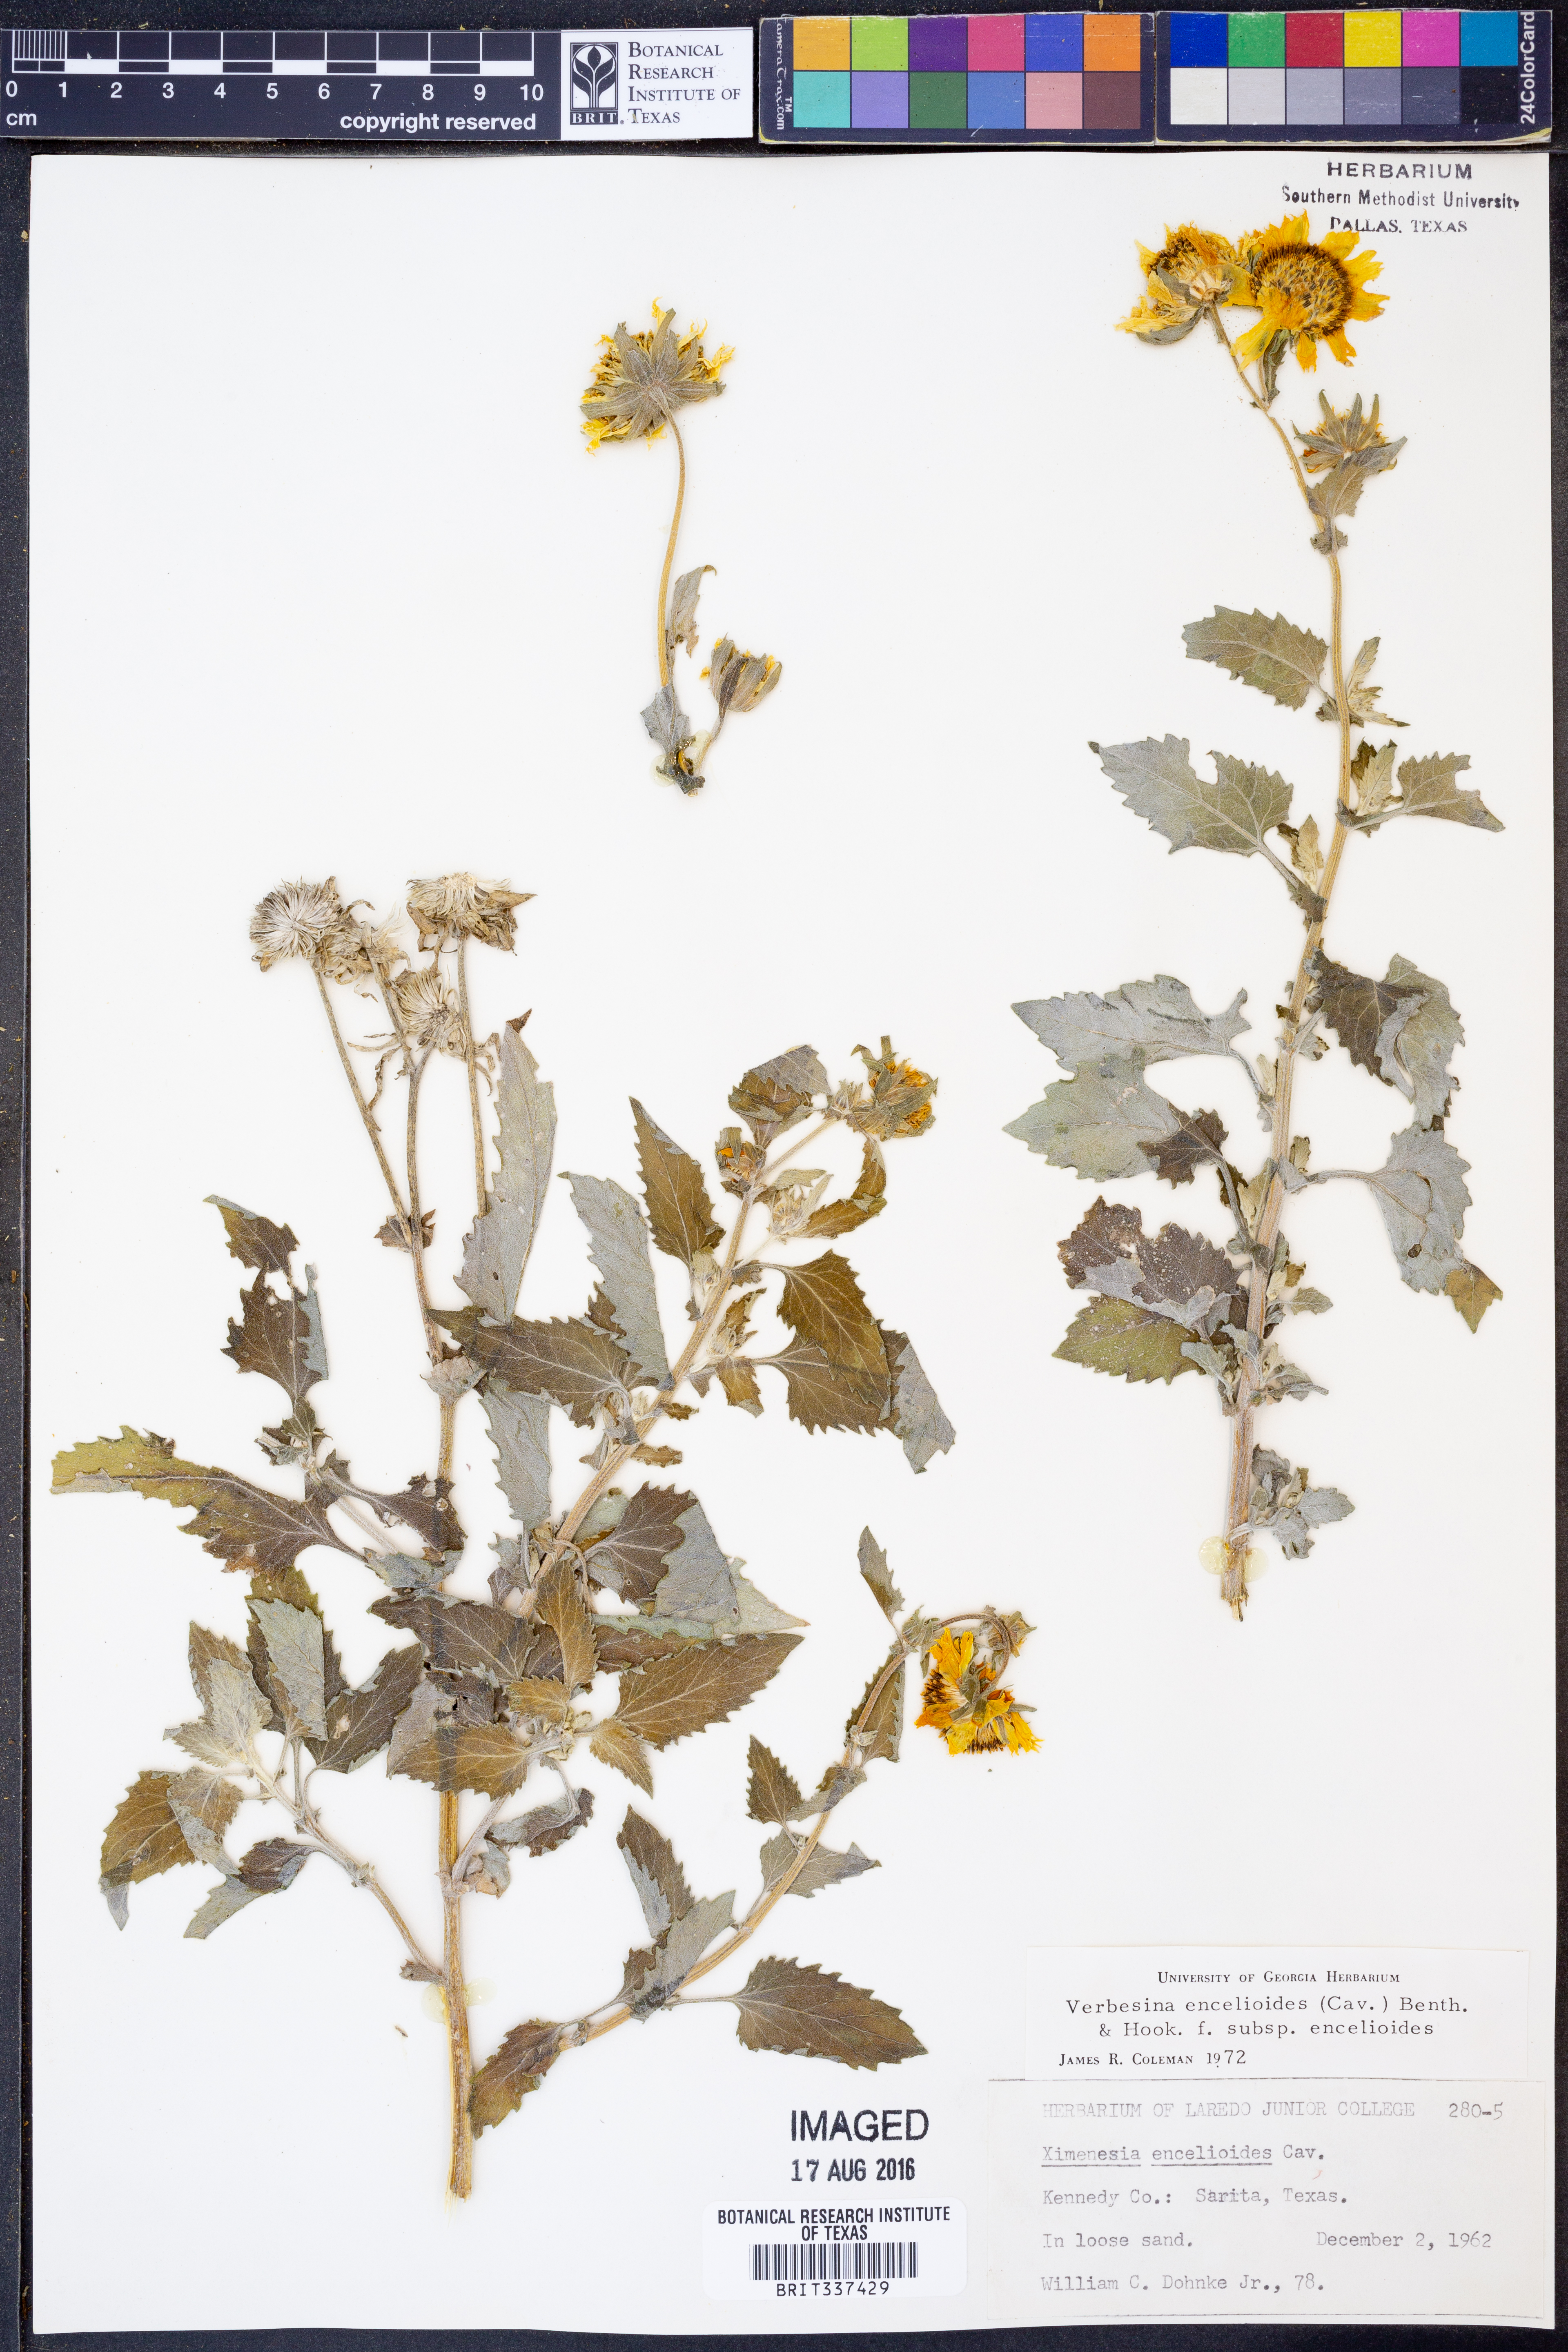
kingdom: Plantae
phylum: Tracheophyta
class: Magnoliopsida
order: Asterales
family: Asteraceae
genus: Verbesina
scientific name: Verbesina encelioides
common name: Golden crownbeard
